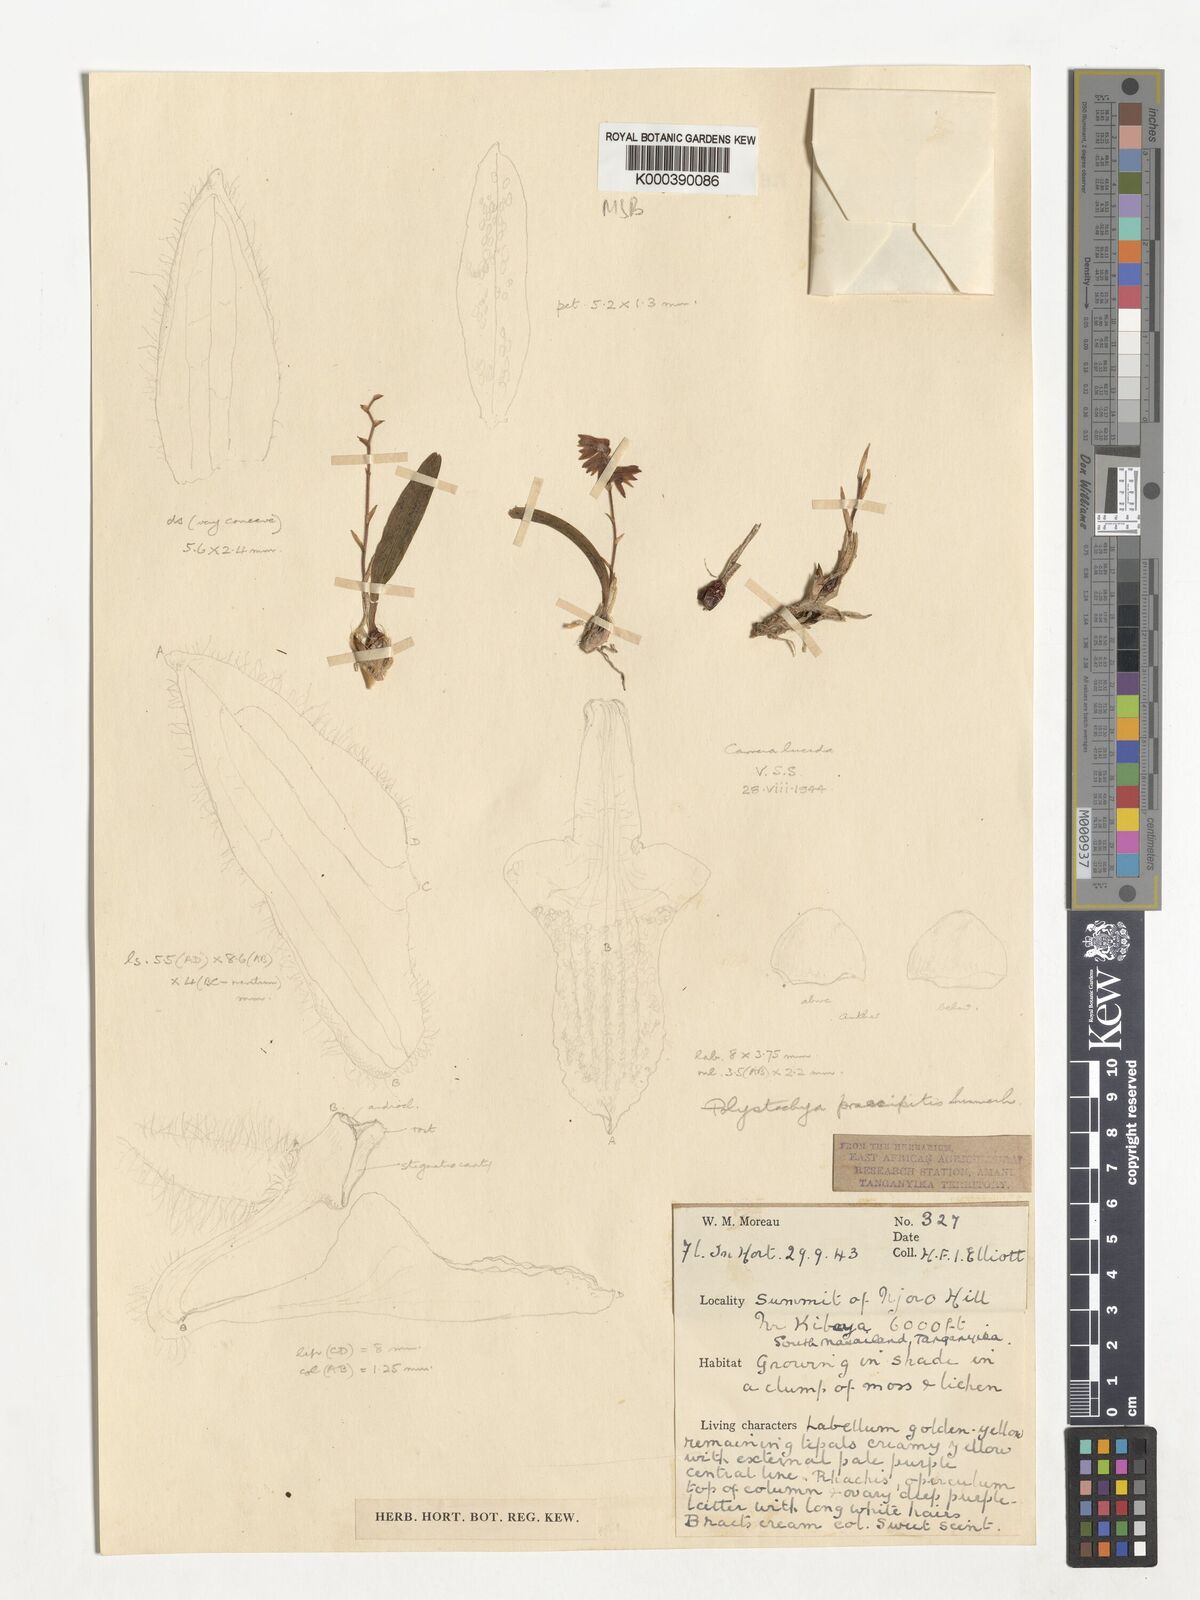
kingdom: Plantae
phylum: Tracheophyta
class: Liliopsida
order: Asparagales
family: Orchidaceae
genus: Polystachya
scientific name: Polystachya praecipitis
